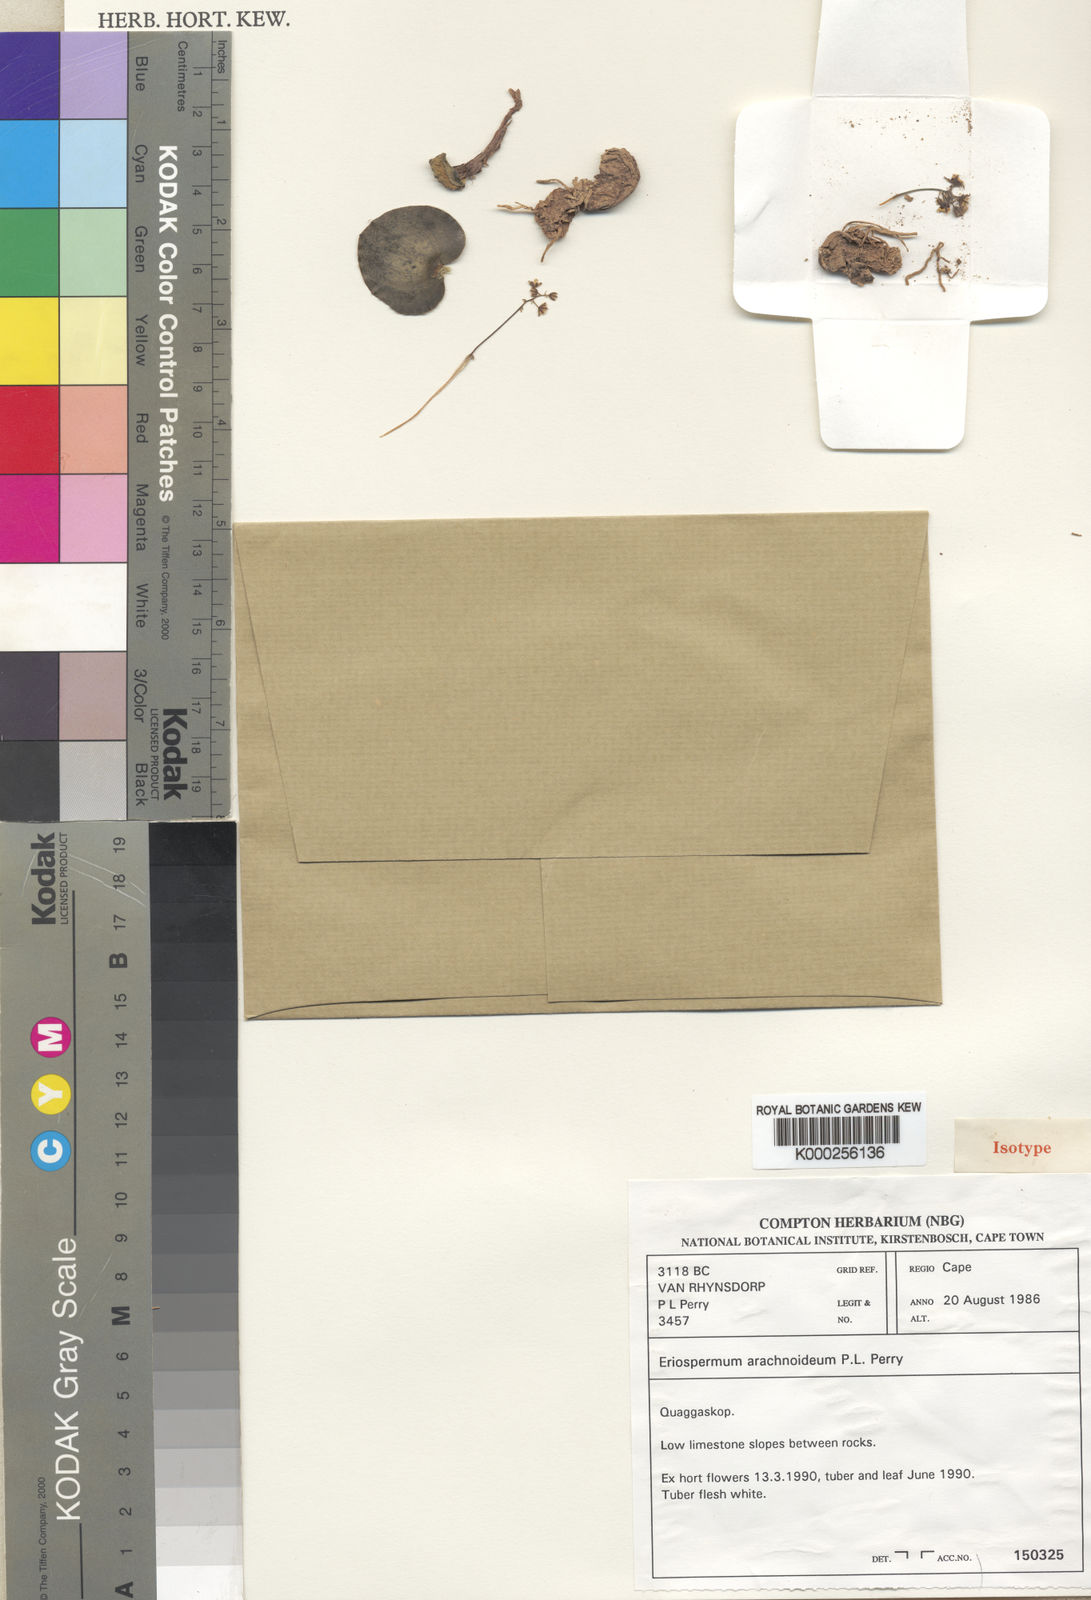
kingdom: Plantae
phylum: Tracheophyta
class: Liliopsida
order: Asparagales
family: Asparagaceae
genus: Eriospermum
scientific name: Eriospermum arachnoideum
